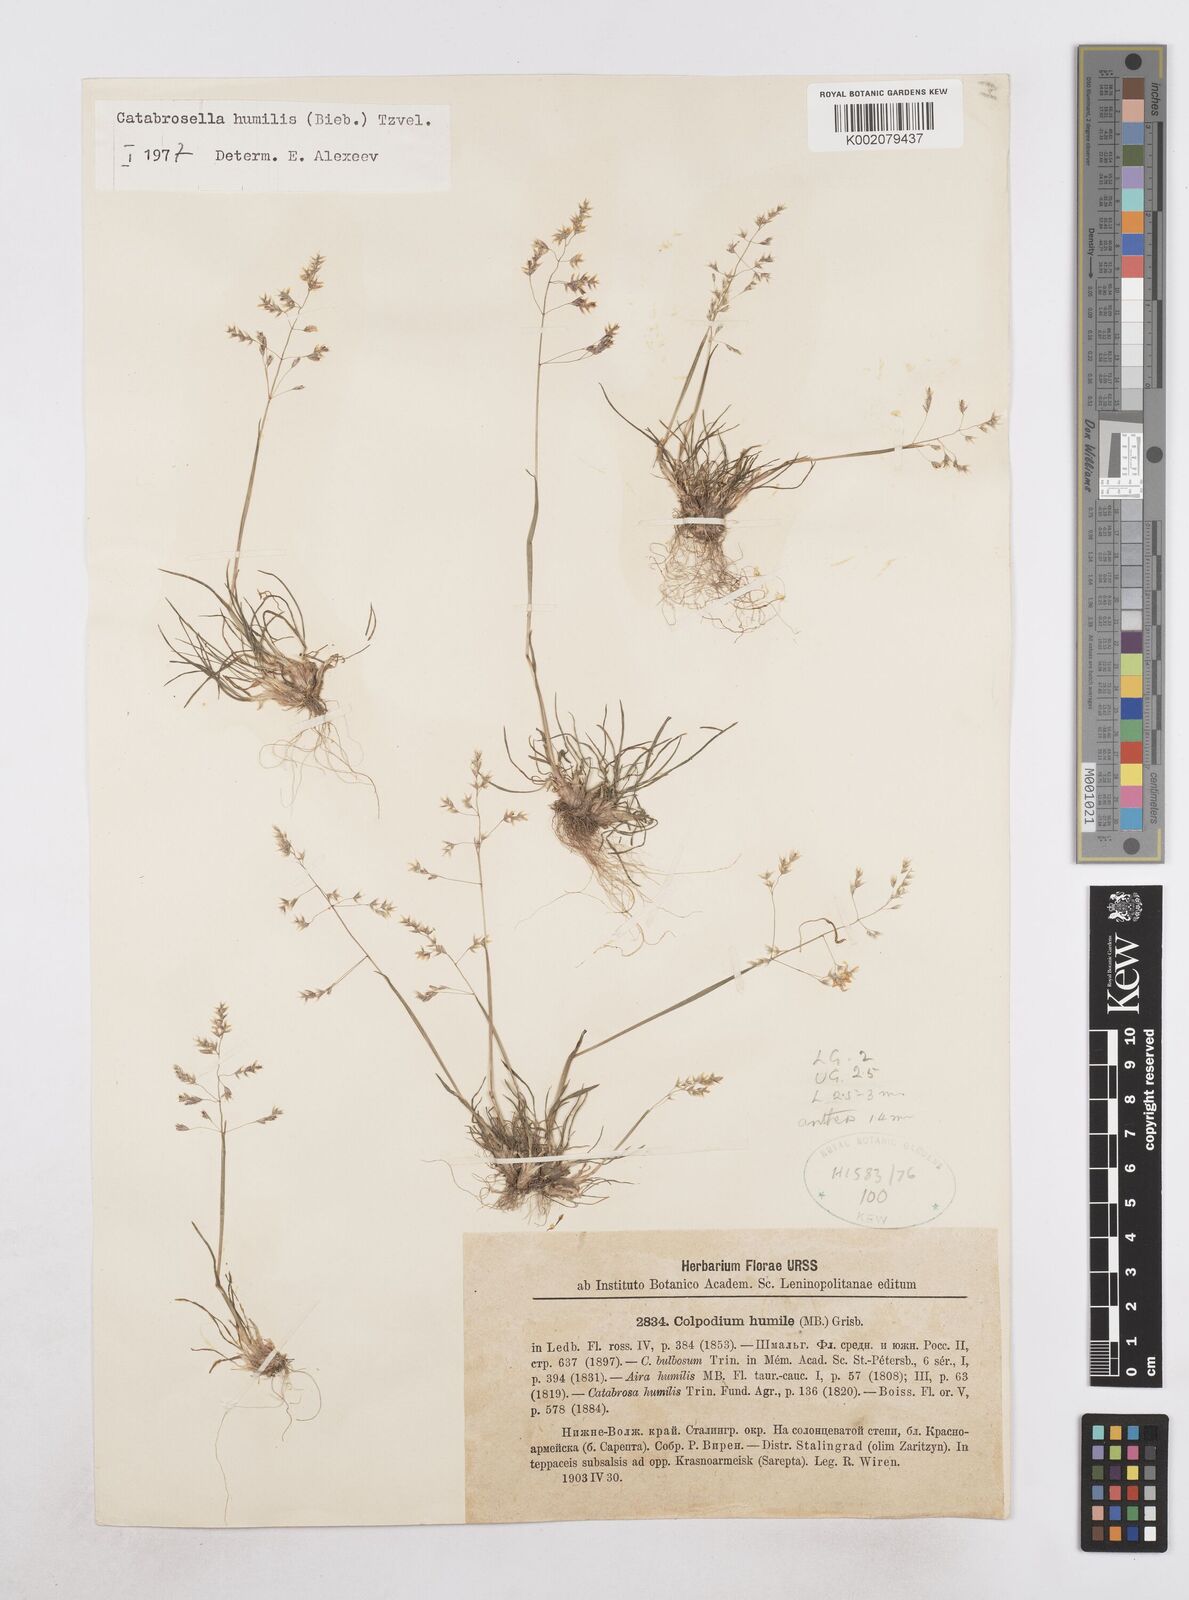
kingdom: Plantae
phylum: Tracheophyta
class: Liliopsida
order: Poales
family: Poaceae
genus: Catabrosella
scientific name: Catabrosella humilis
